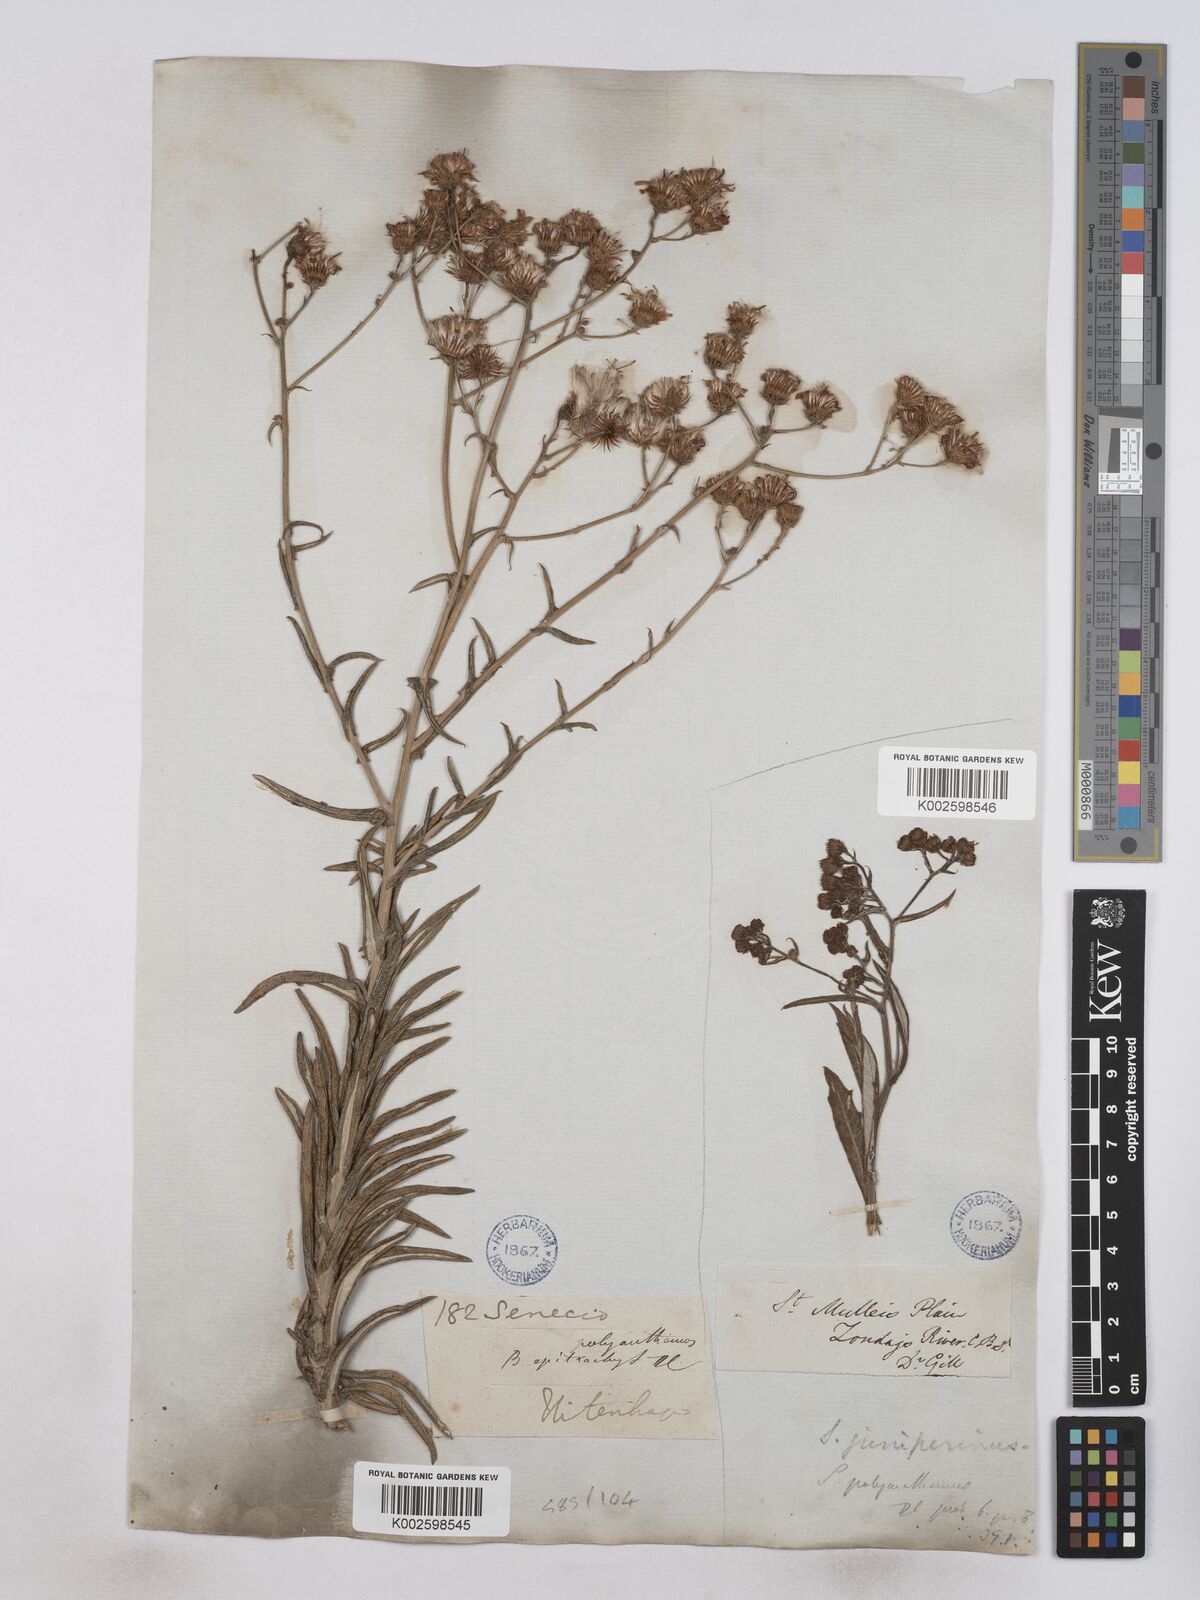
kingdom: Plantae
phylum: Tracheophyta
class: Magnoliopsida
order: Asterales
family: Asteraceae
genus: Senecio
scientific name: Senecio juniperinus
